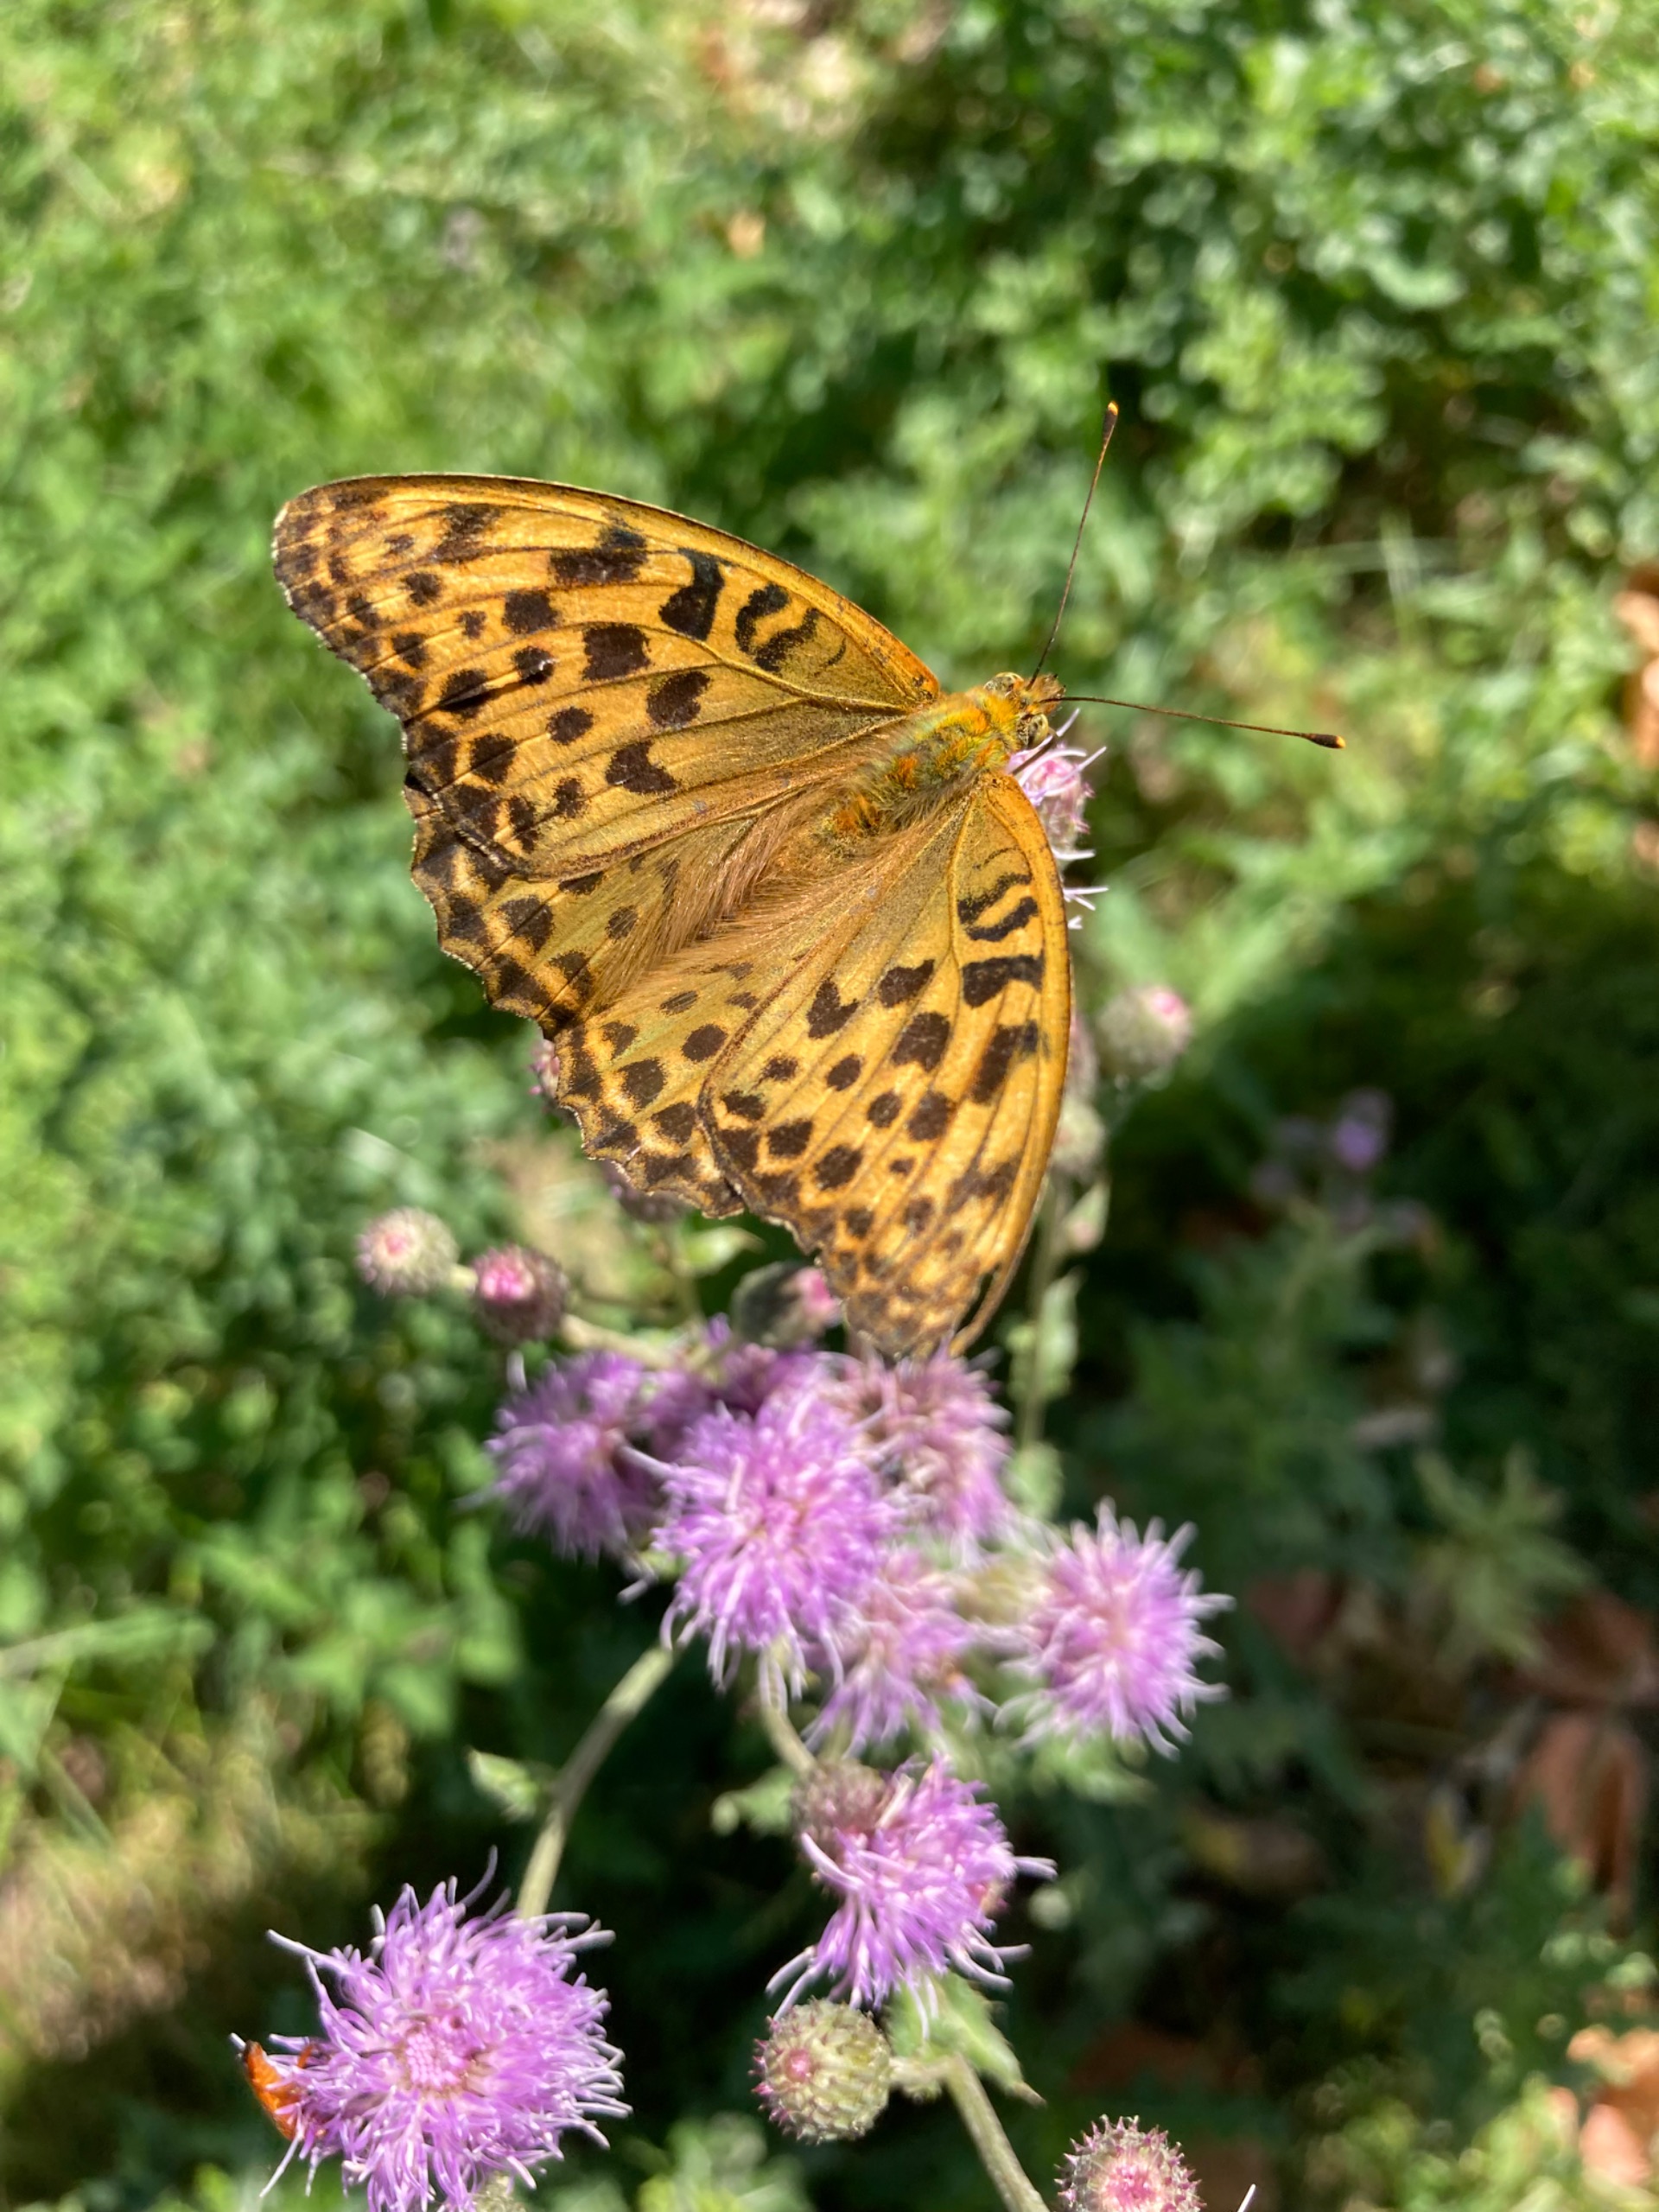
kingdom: Animalia
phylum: Arthropoda
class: Insecta
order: Lepidoptera
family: Nymphalidae
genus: Argynnis
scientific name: Argynnis paphia
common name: Kejserkåbe
